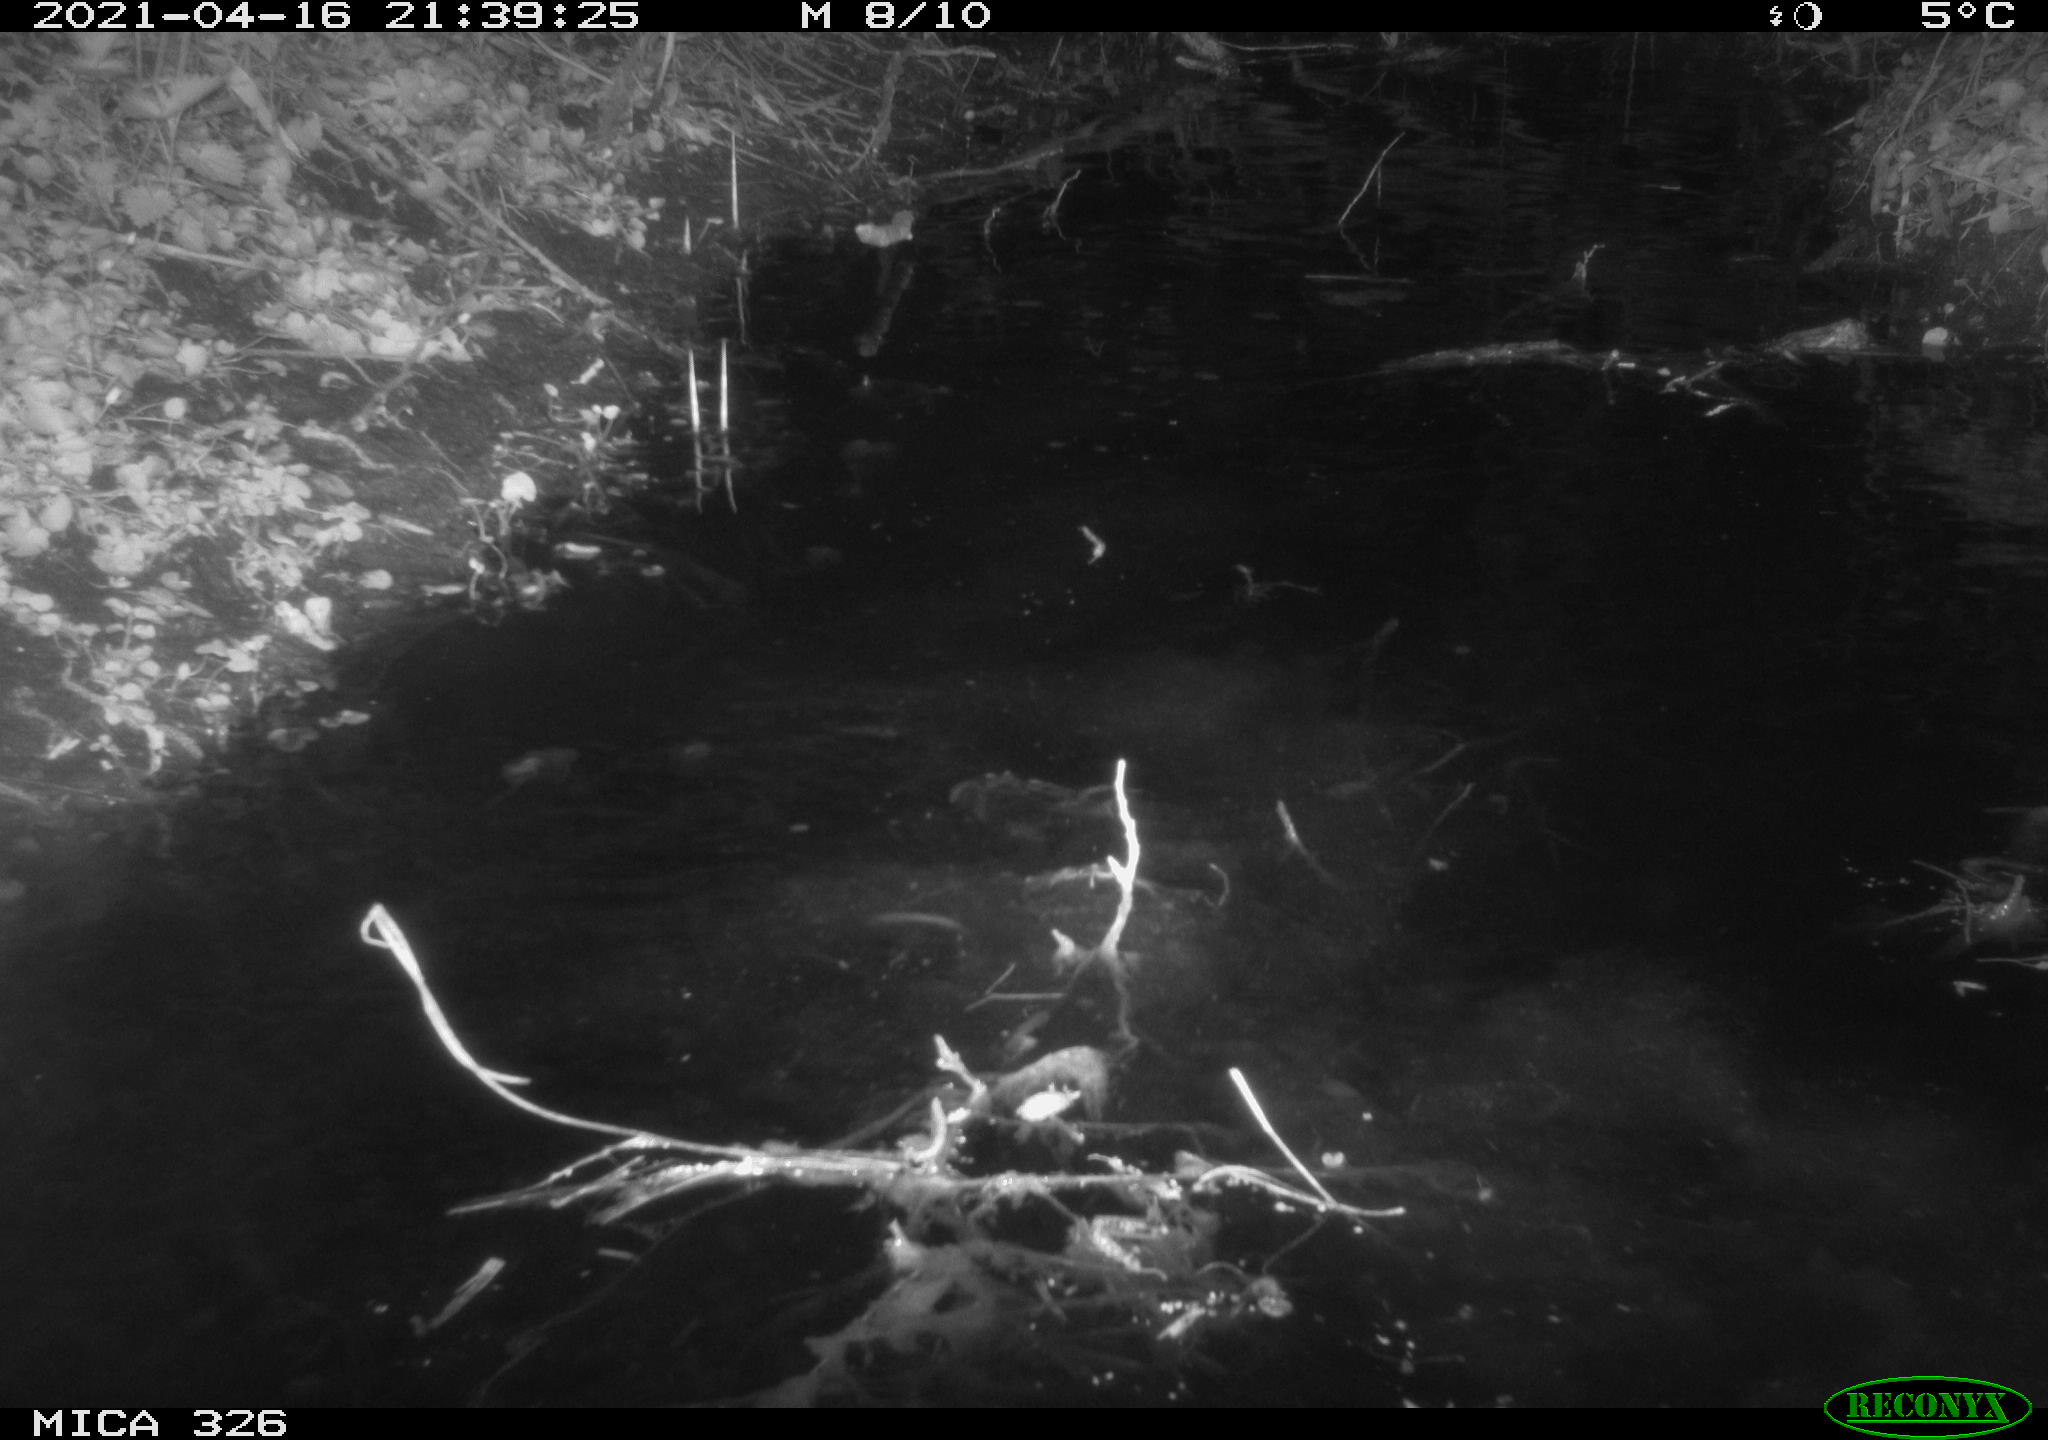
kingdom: Animalia
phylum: Chordata
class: Mammalia
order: Rodentia
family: Myocastoridae
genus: Myocastor
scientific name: Myocastor coypus
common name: Coypu
